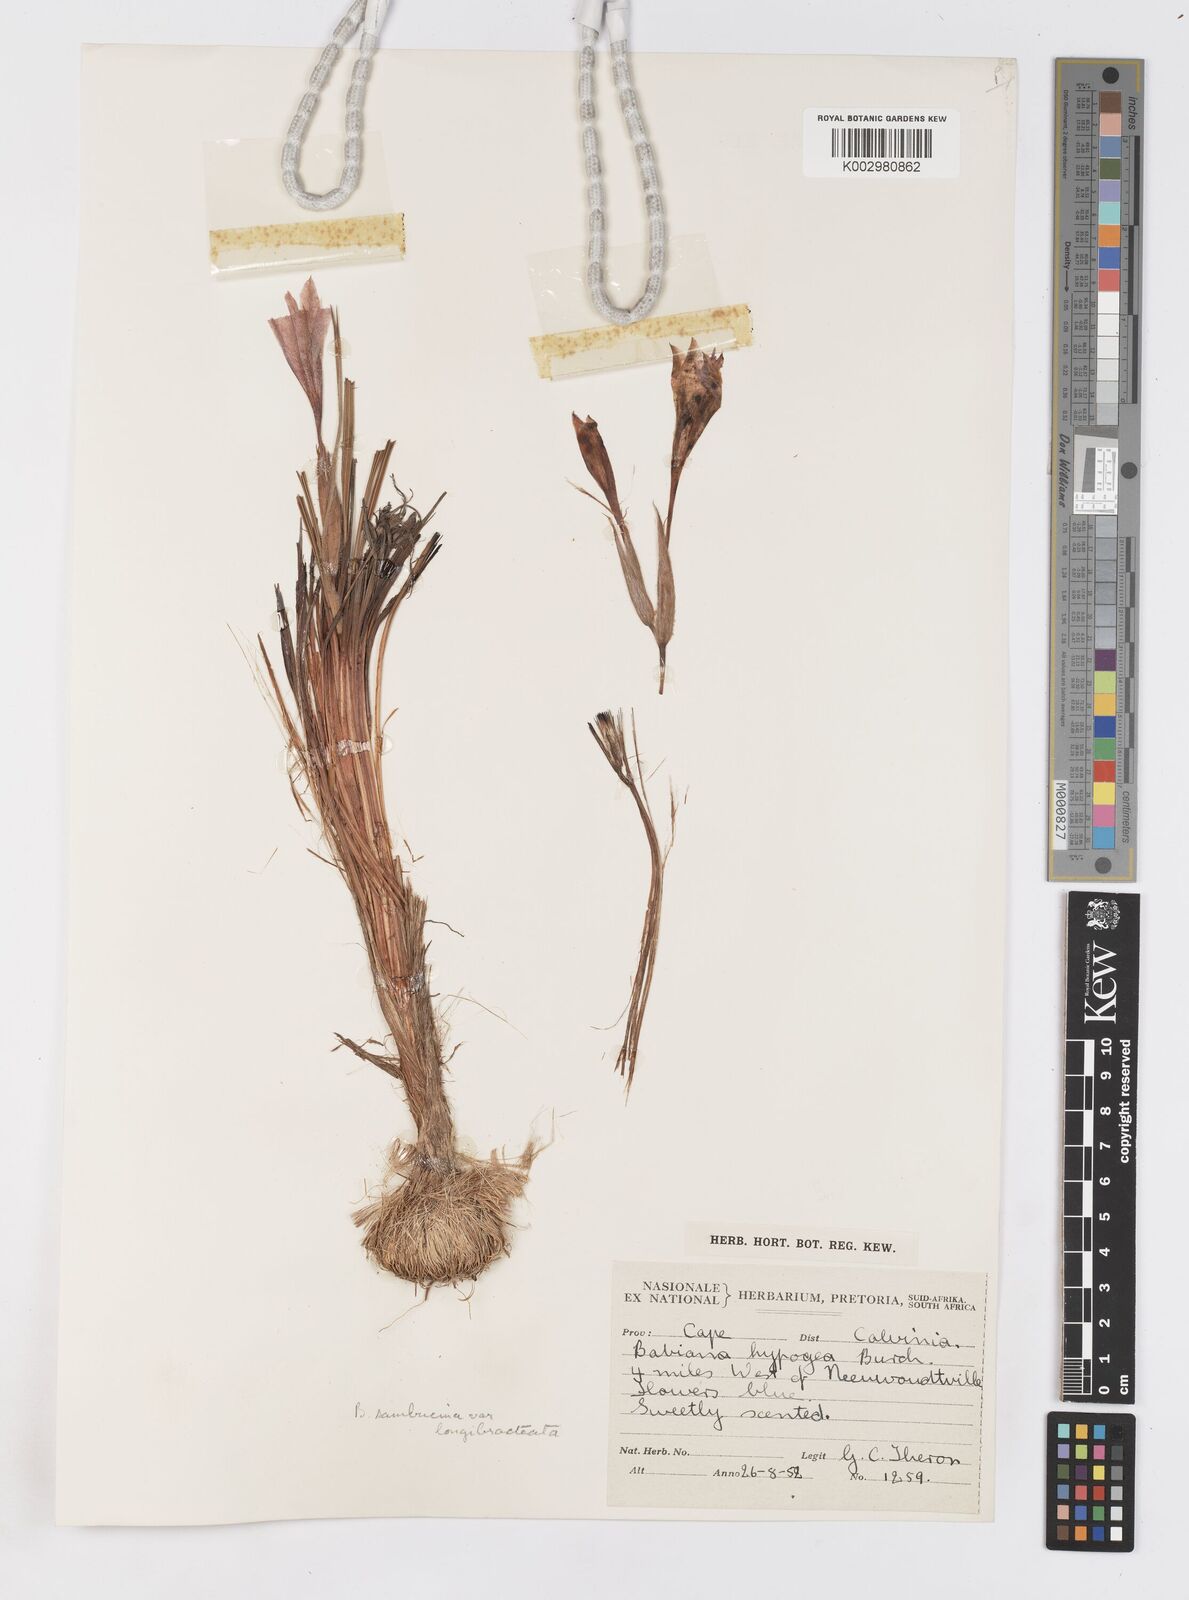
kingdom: Plantae
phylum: Tracheophyta
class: Liliopsida
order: Asparagales
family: Iridaceae
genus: Babiana
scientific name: Babiana sambucina
